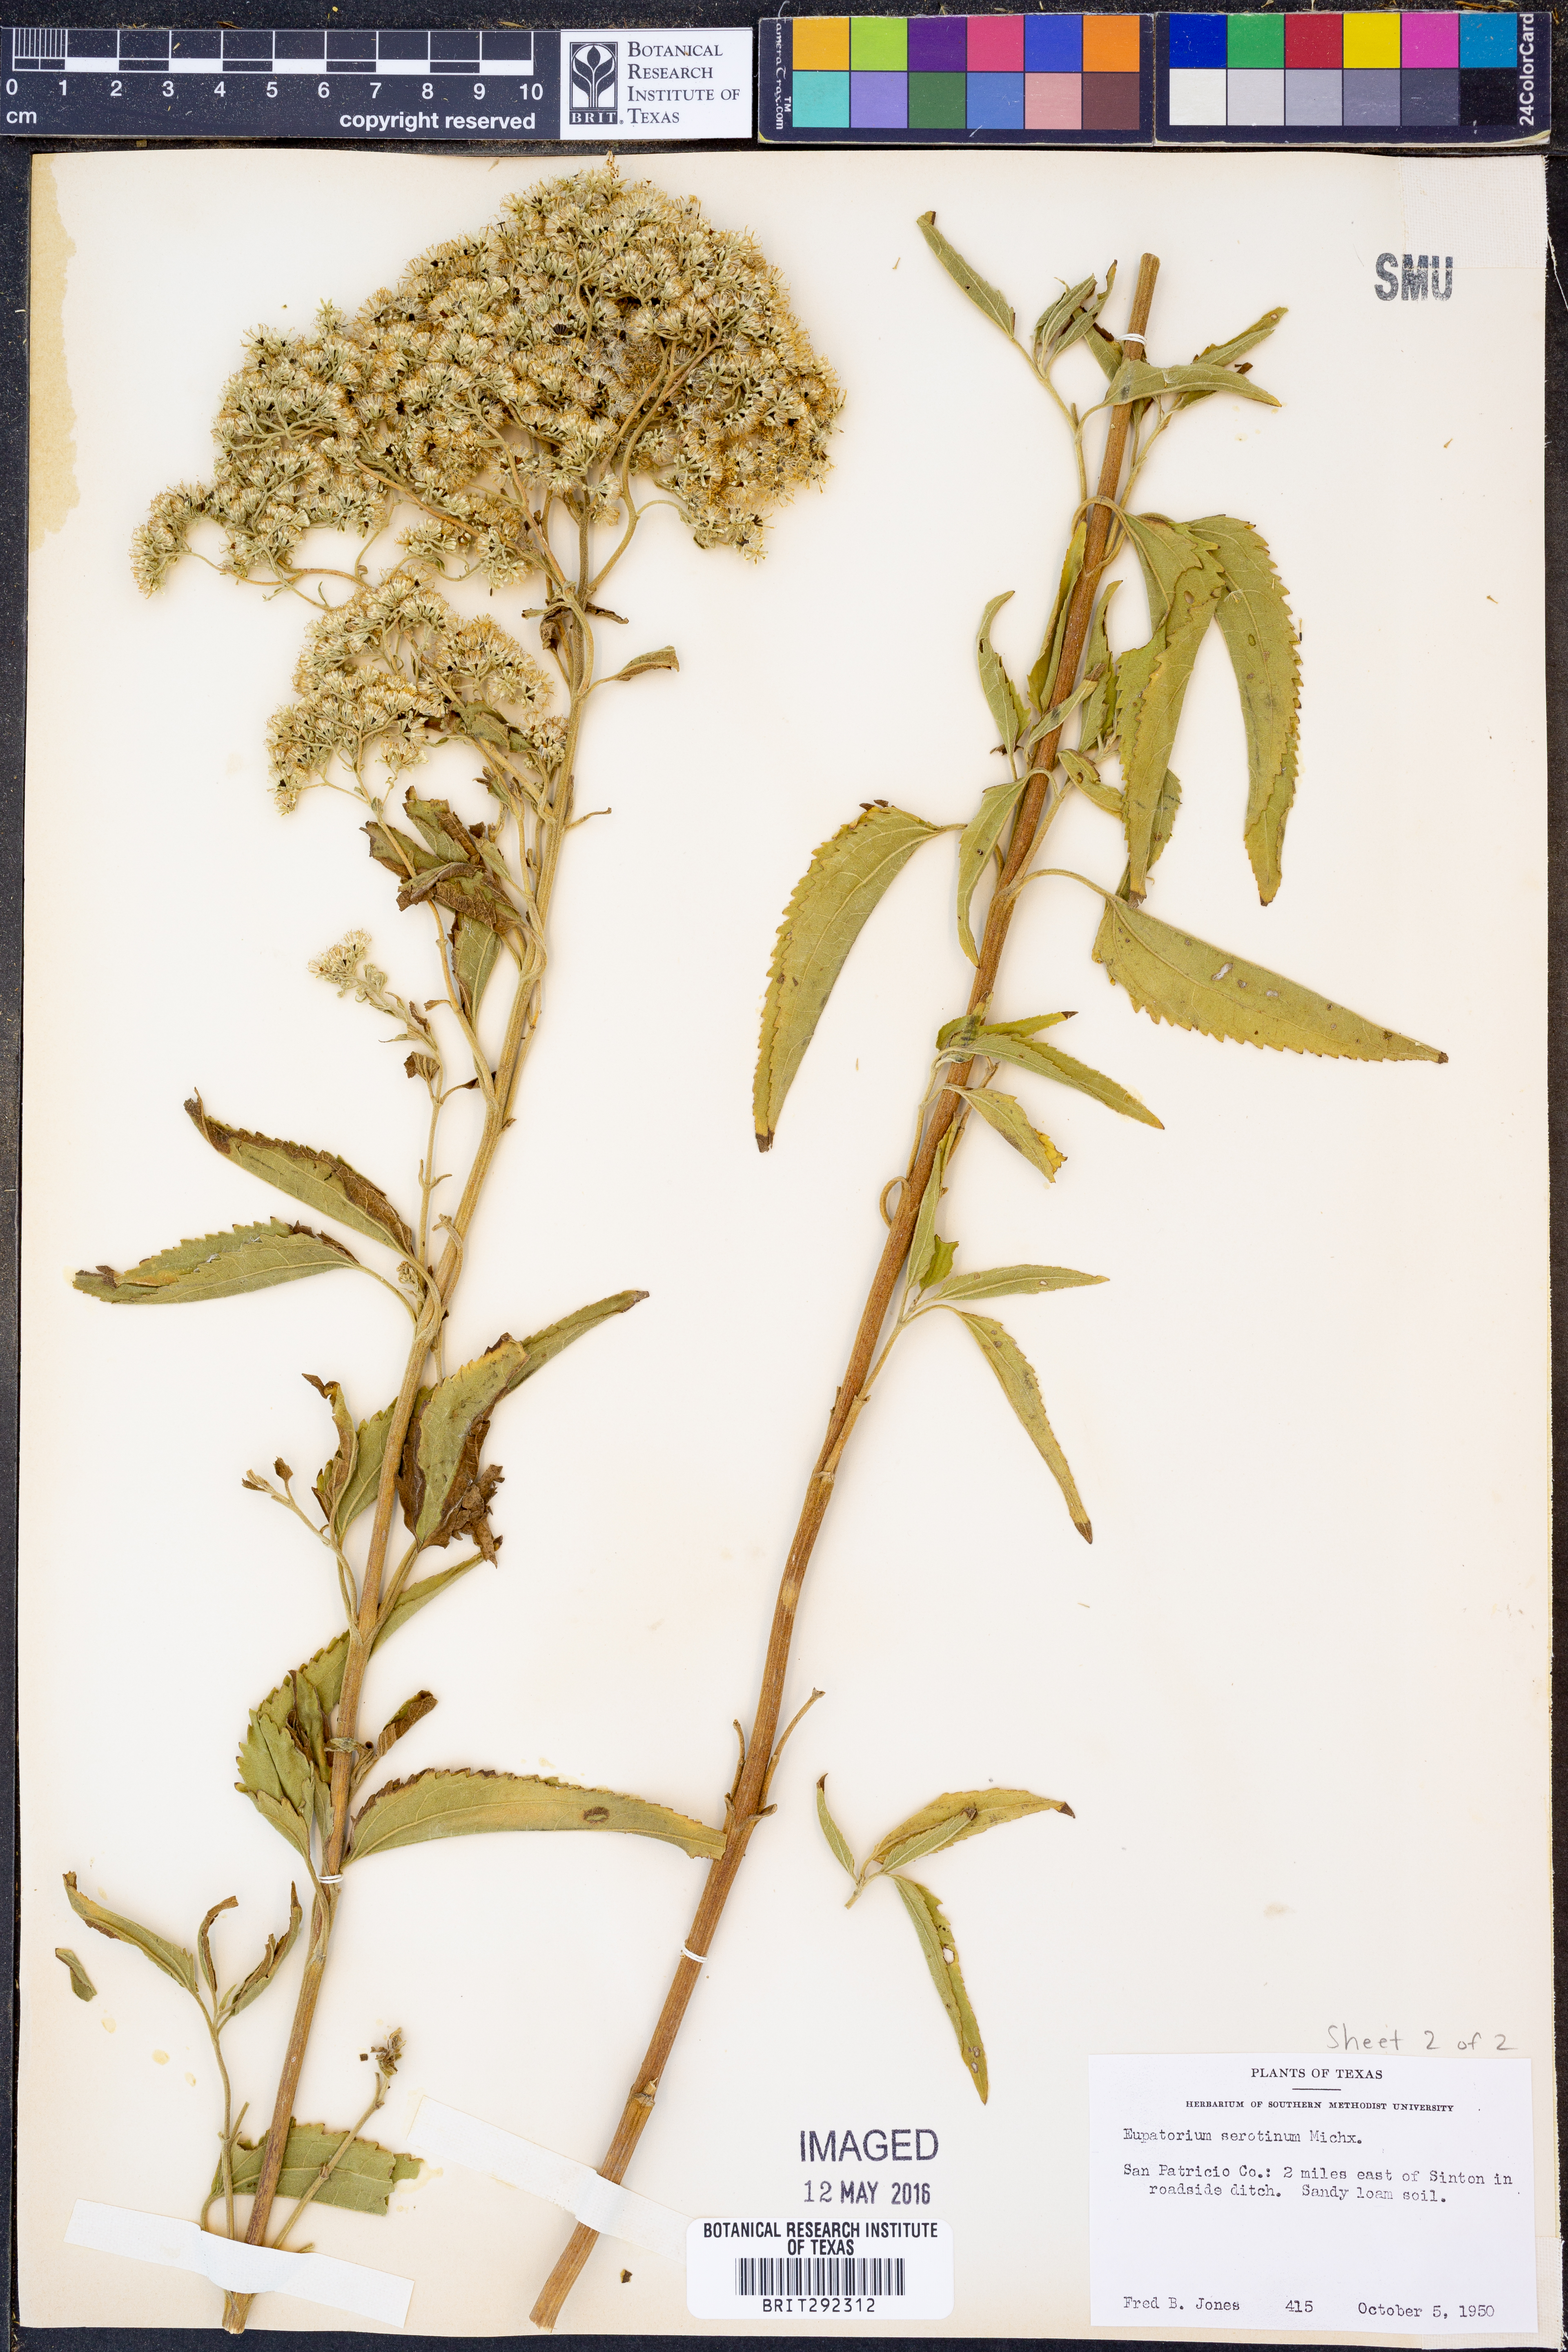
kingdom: Plantae
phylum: Tracheophyta
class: Magnoliopsida
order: Asterales
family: Asteraceae
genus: Eupatorium
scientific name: Eupatorium serotinum
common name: Late boneset
